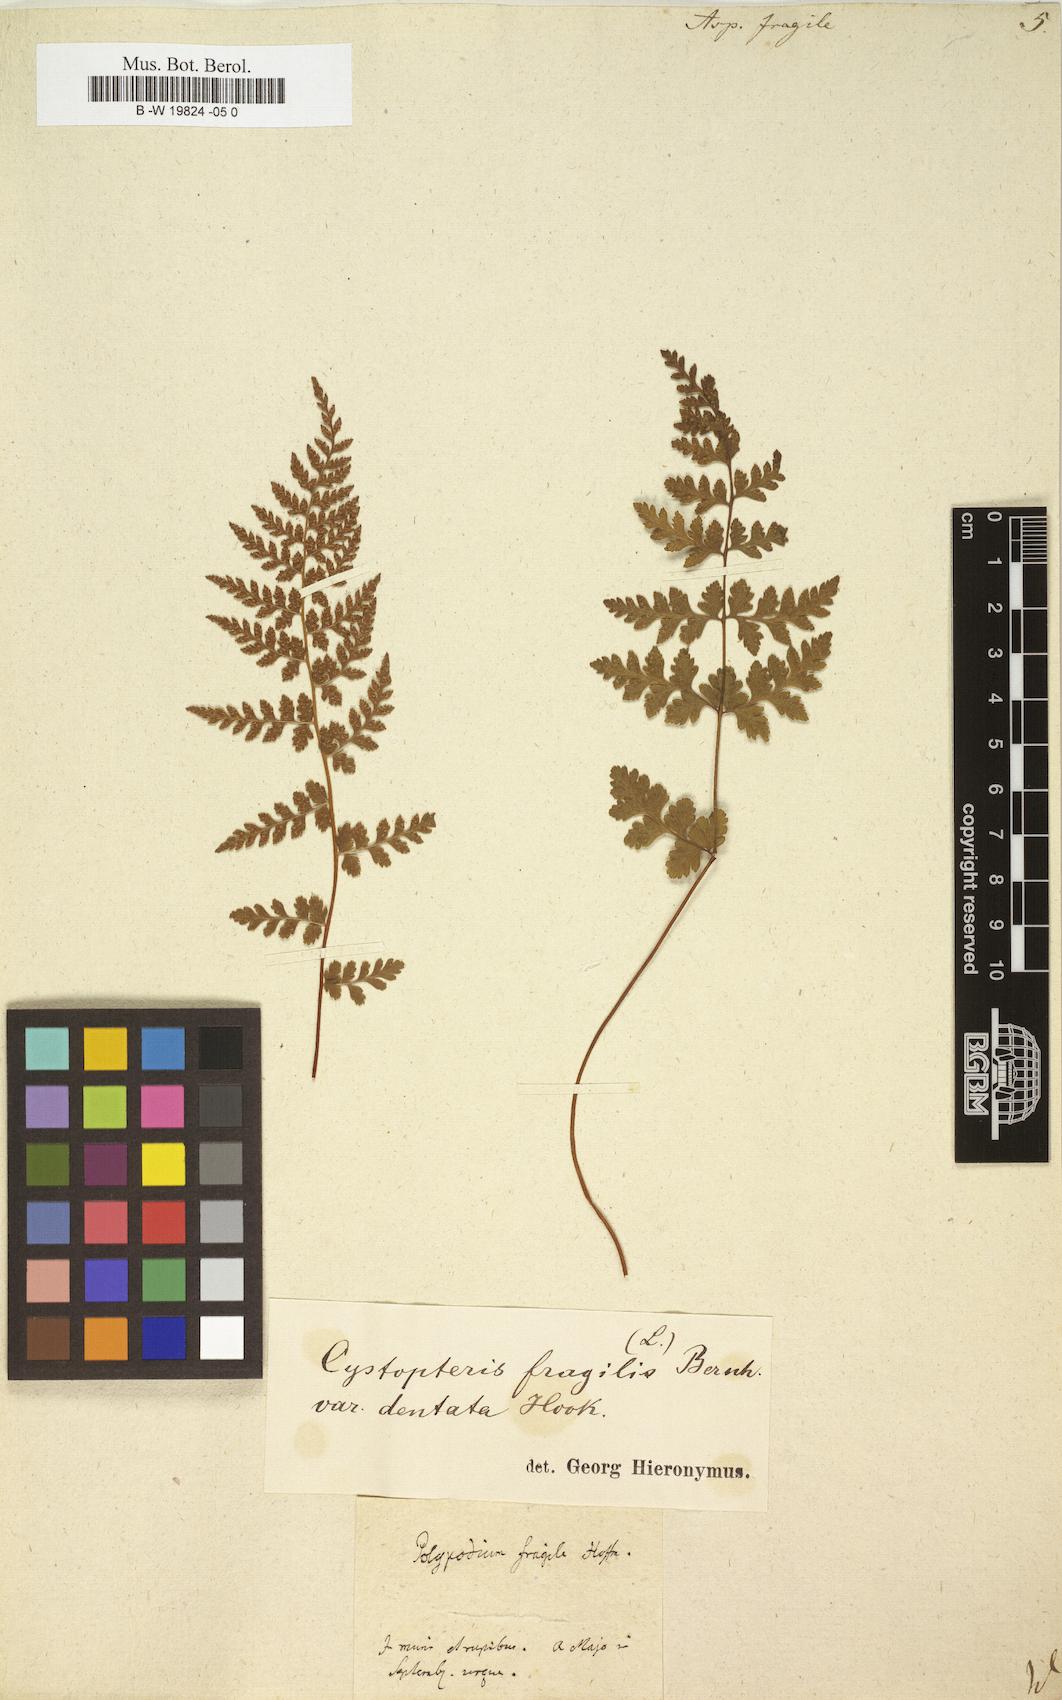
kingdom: Plantae
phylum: Tracheophyta
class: Polypodiopsida
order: Polypodiales
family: Cystopteridaceae
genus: Cystopteris
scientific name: Cystopteris fragilis
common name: Brittle bladder fern
